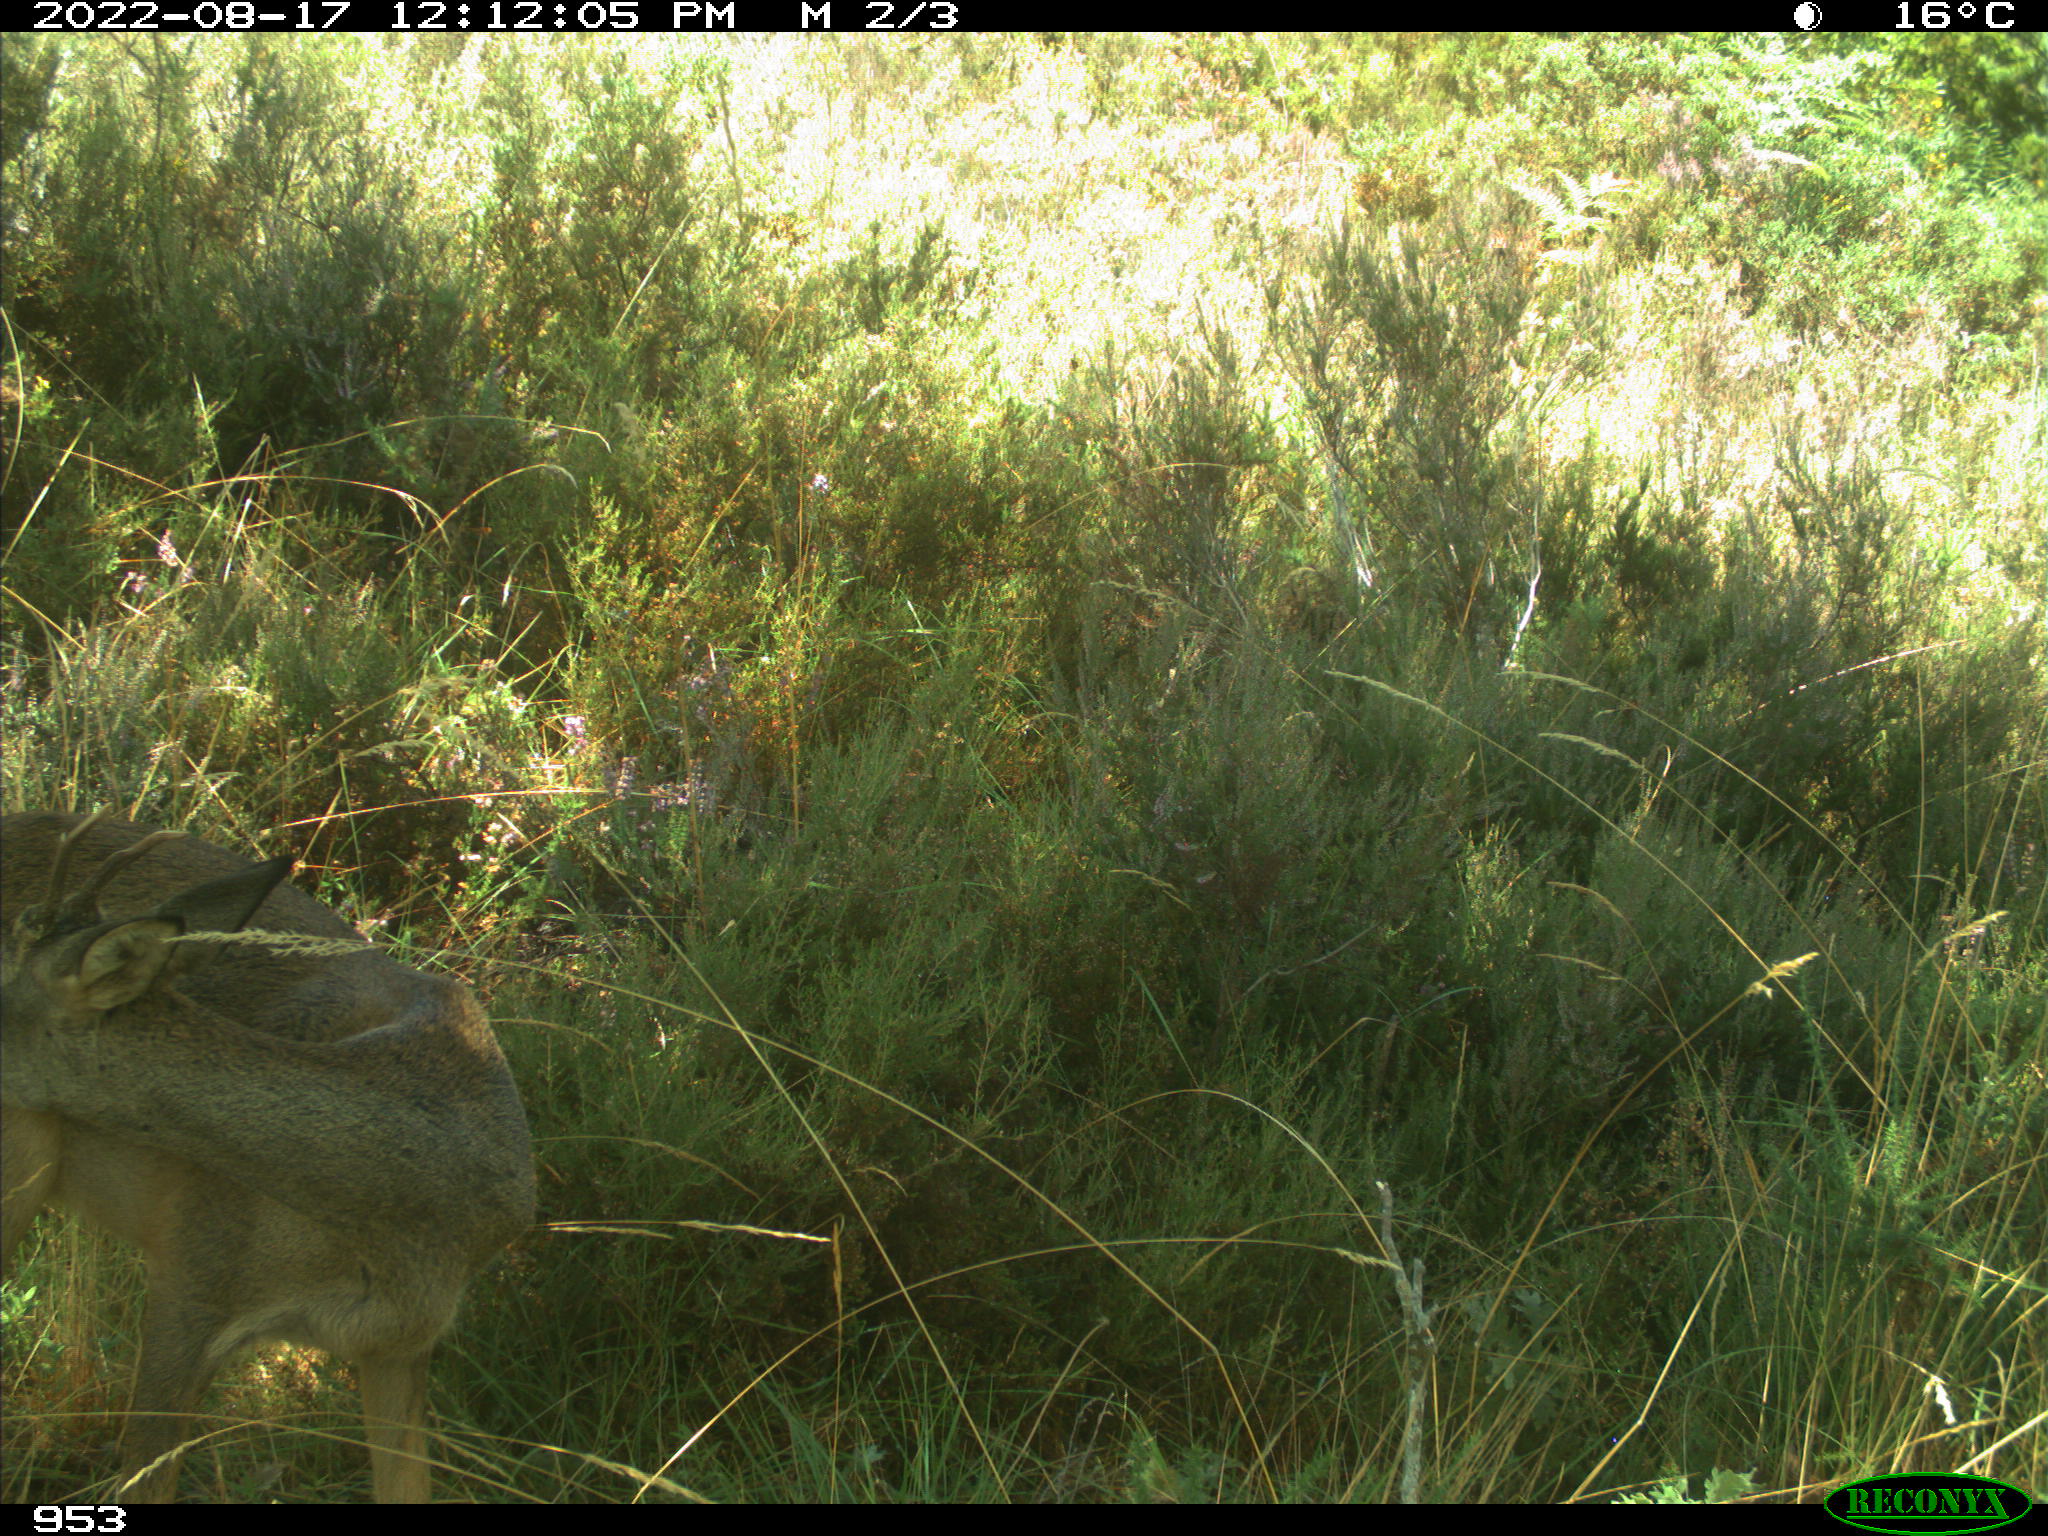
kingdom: Animalia
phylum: Chordata
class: Mammalia
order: Artiodactyla
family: Cervidae
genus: Capreolus
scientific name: Capreolus capreolus
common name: Western roe deer
